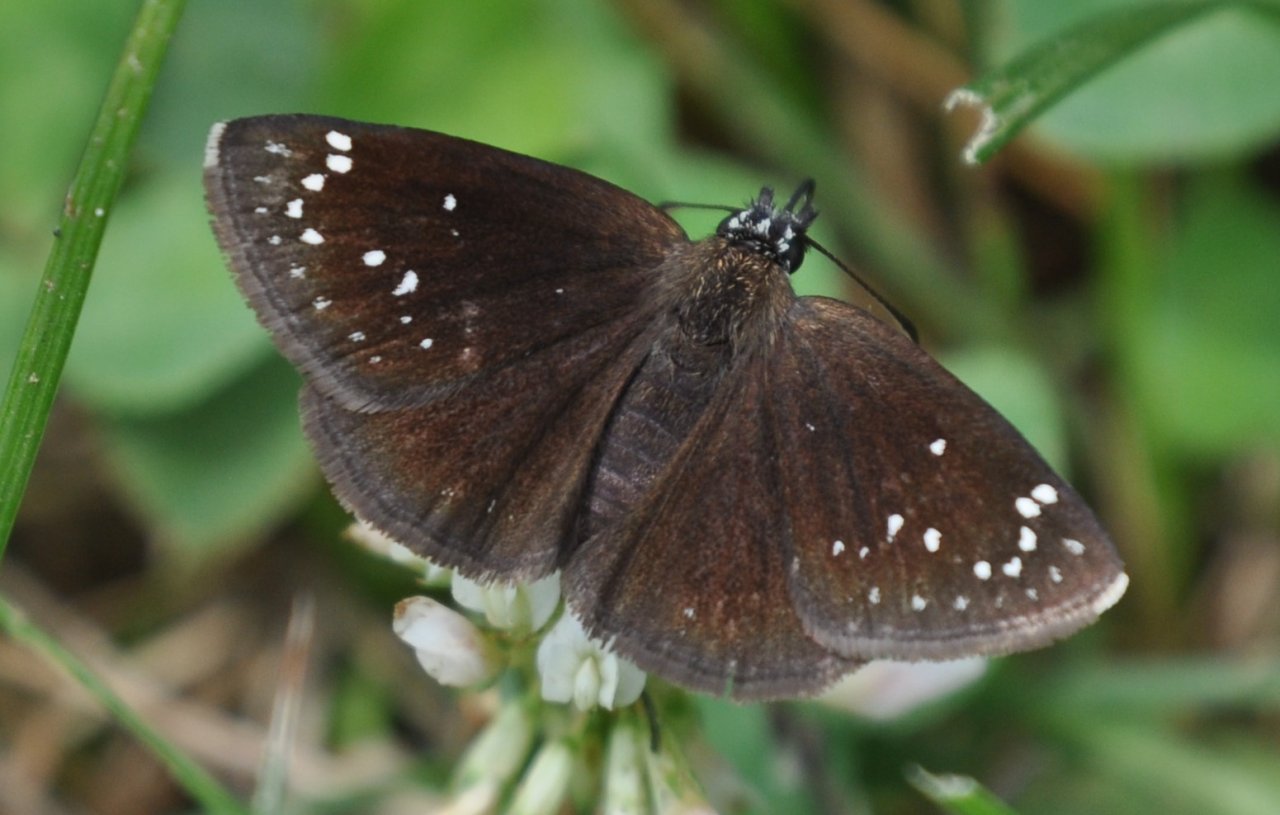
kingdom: Animalia
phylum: Arthropoda
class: Insecta
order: Lepidoptera
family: Hesperiidae
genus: Pholisora
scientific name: Pholisora catullus
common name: Common Sootywing
